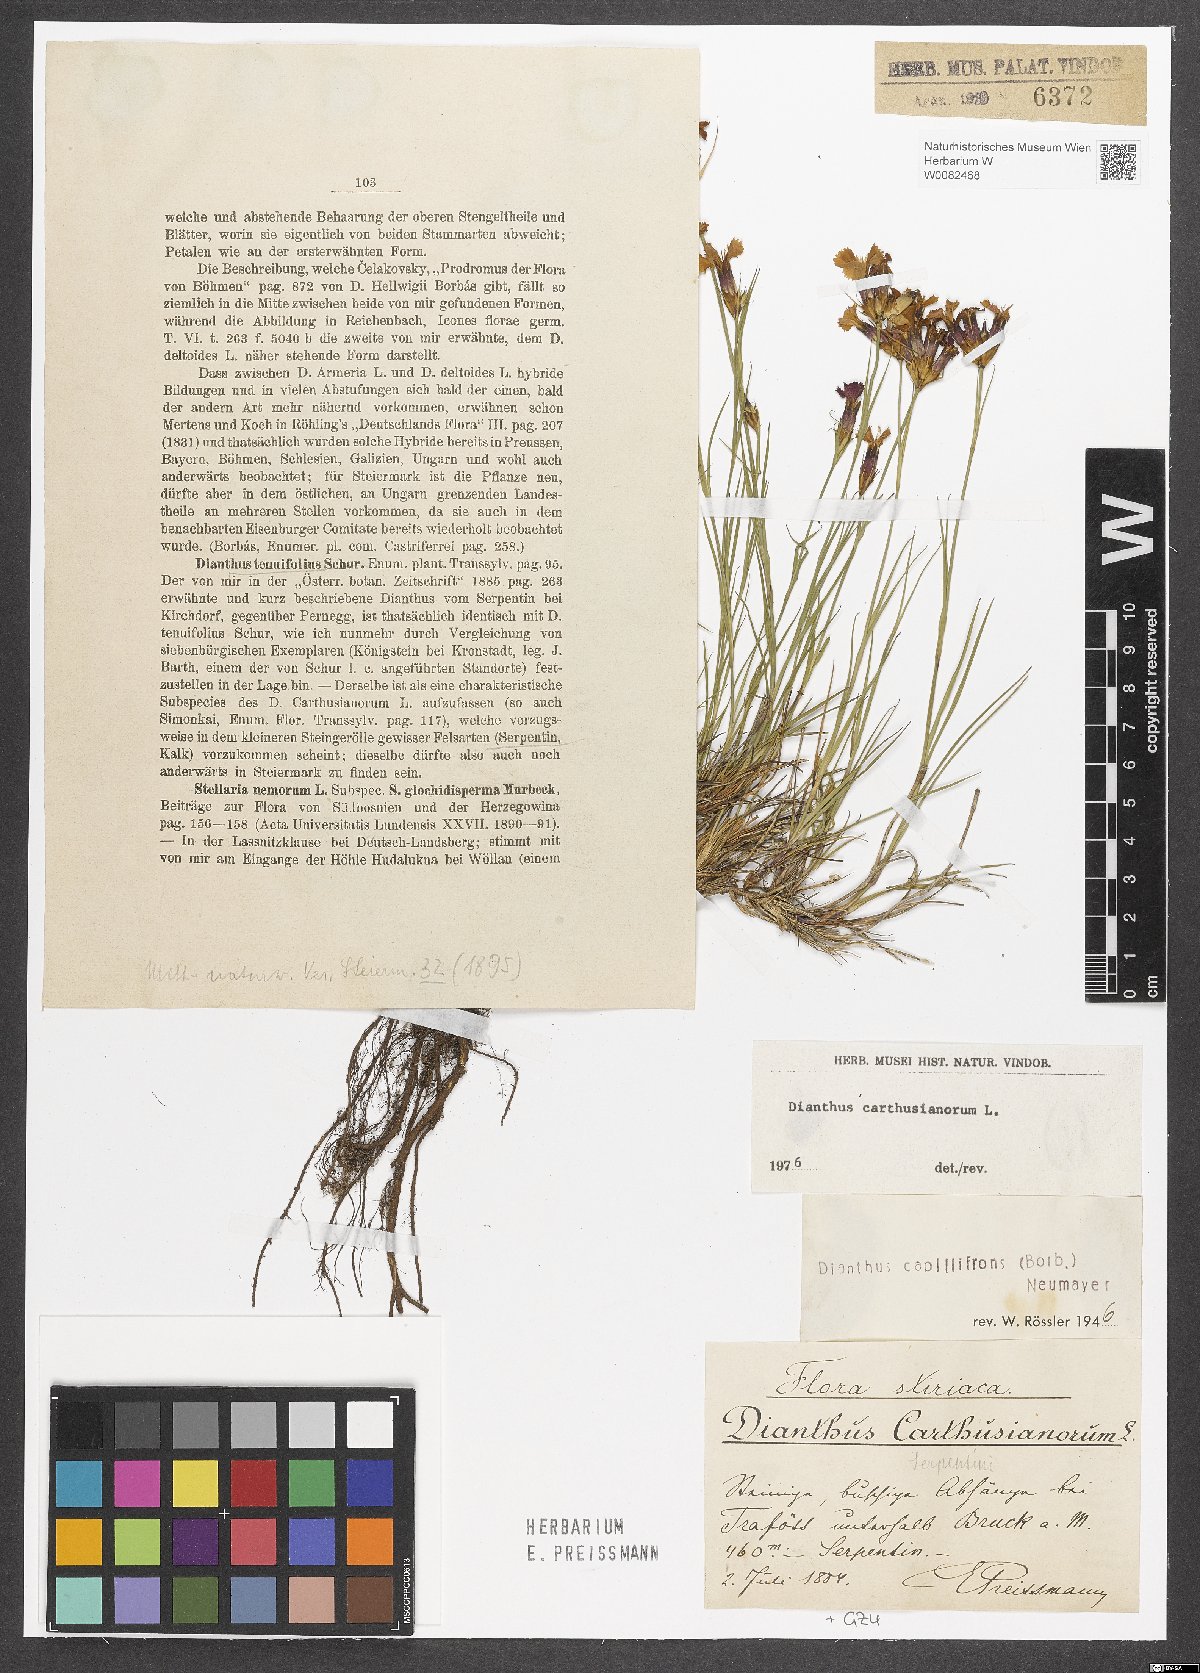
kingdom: Plantae
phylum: Tracheophyta
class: Magnoliopsida
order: Caryophyllales
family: Caryophyllaceae
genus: Dianthus
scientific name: Dianthus carthusianorum
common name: Carthusian pink
